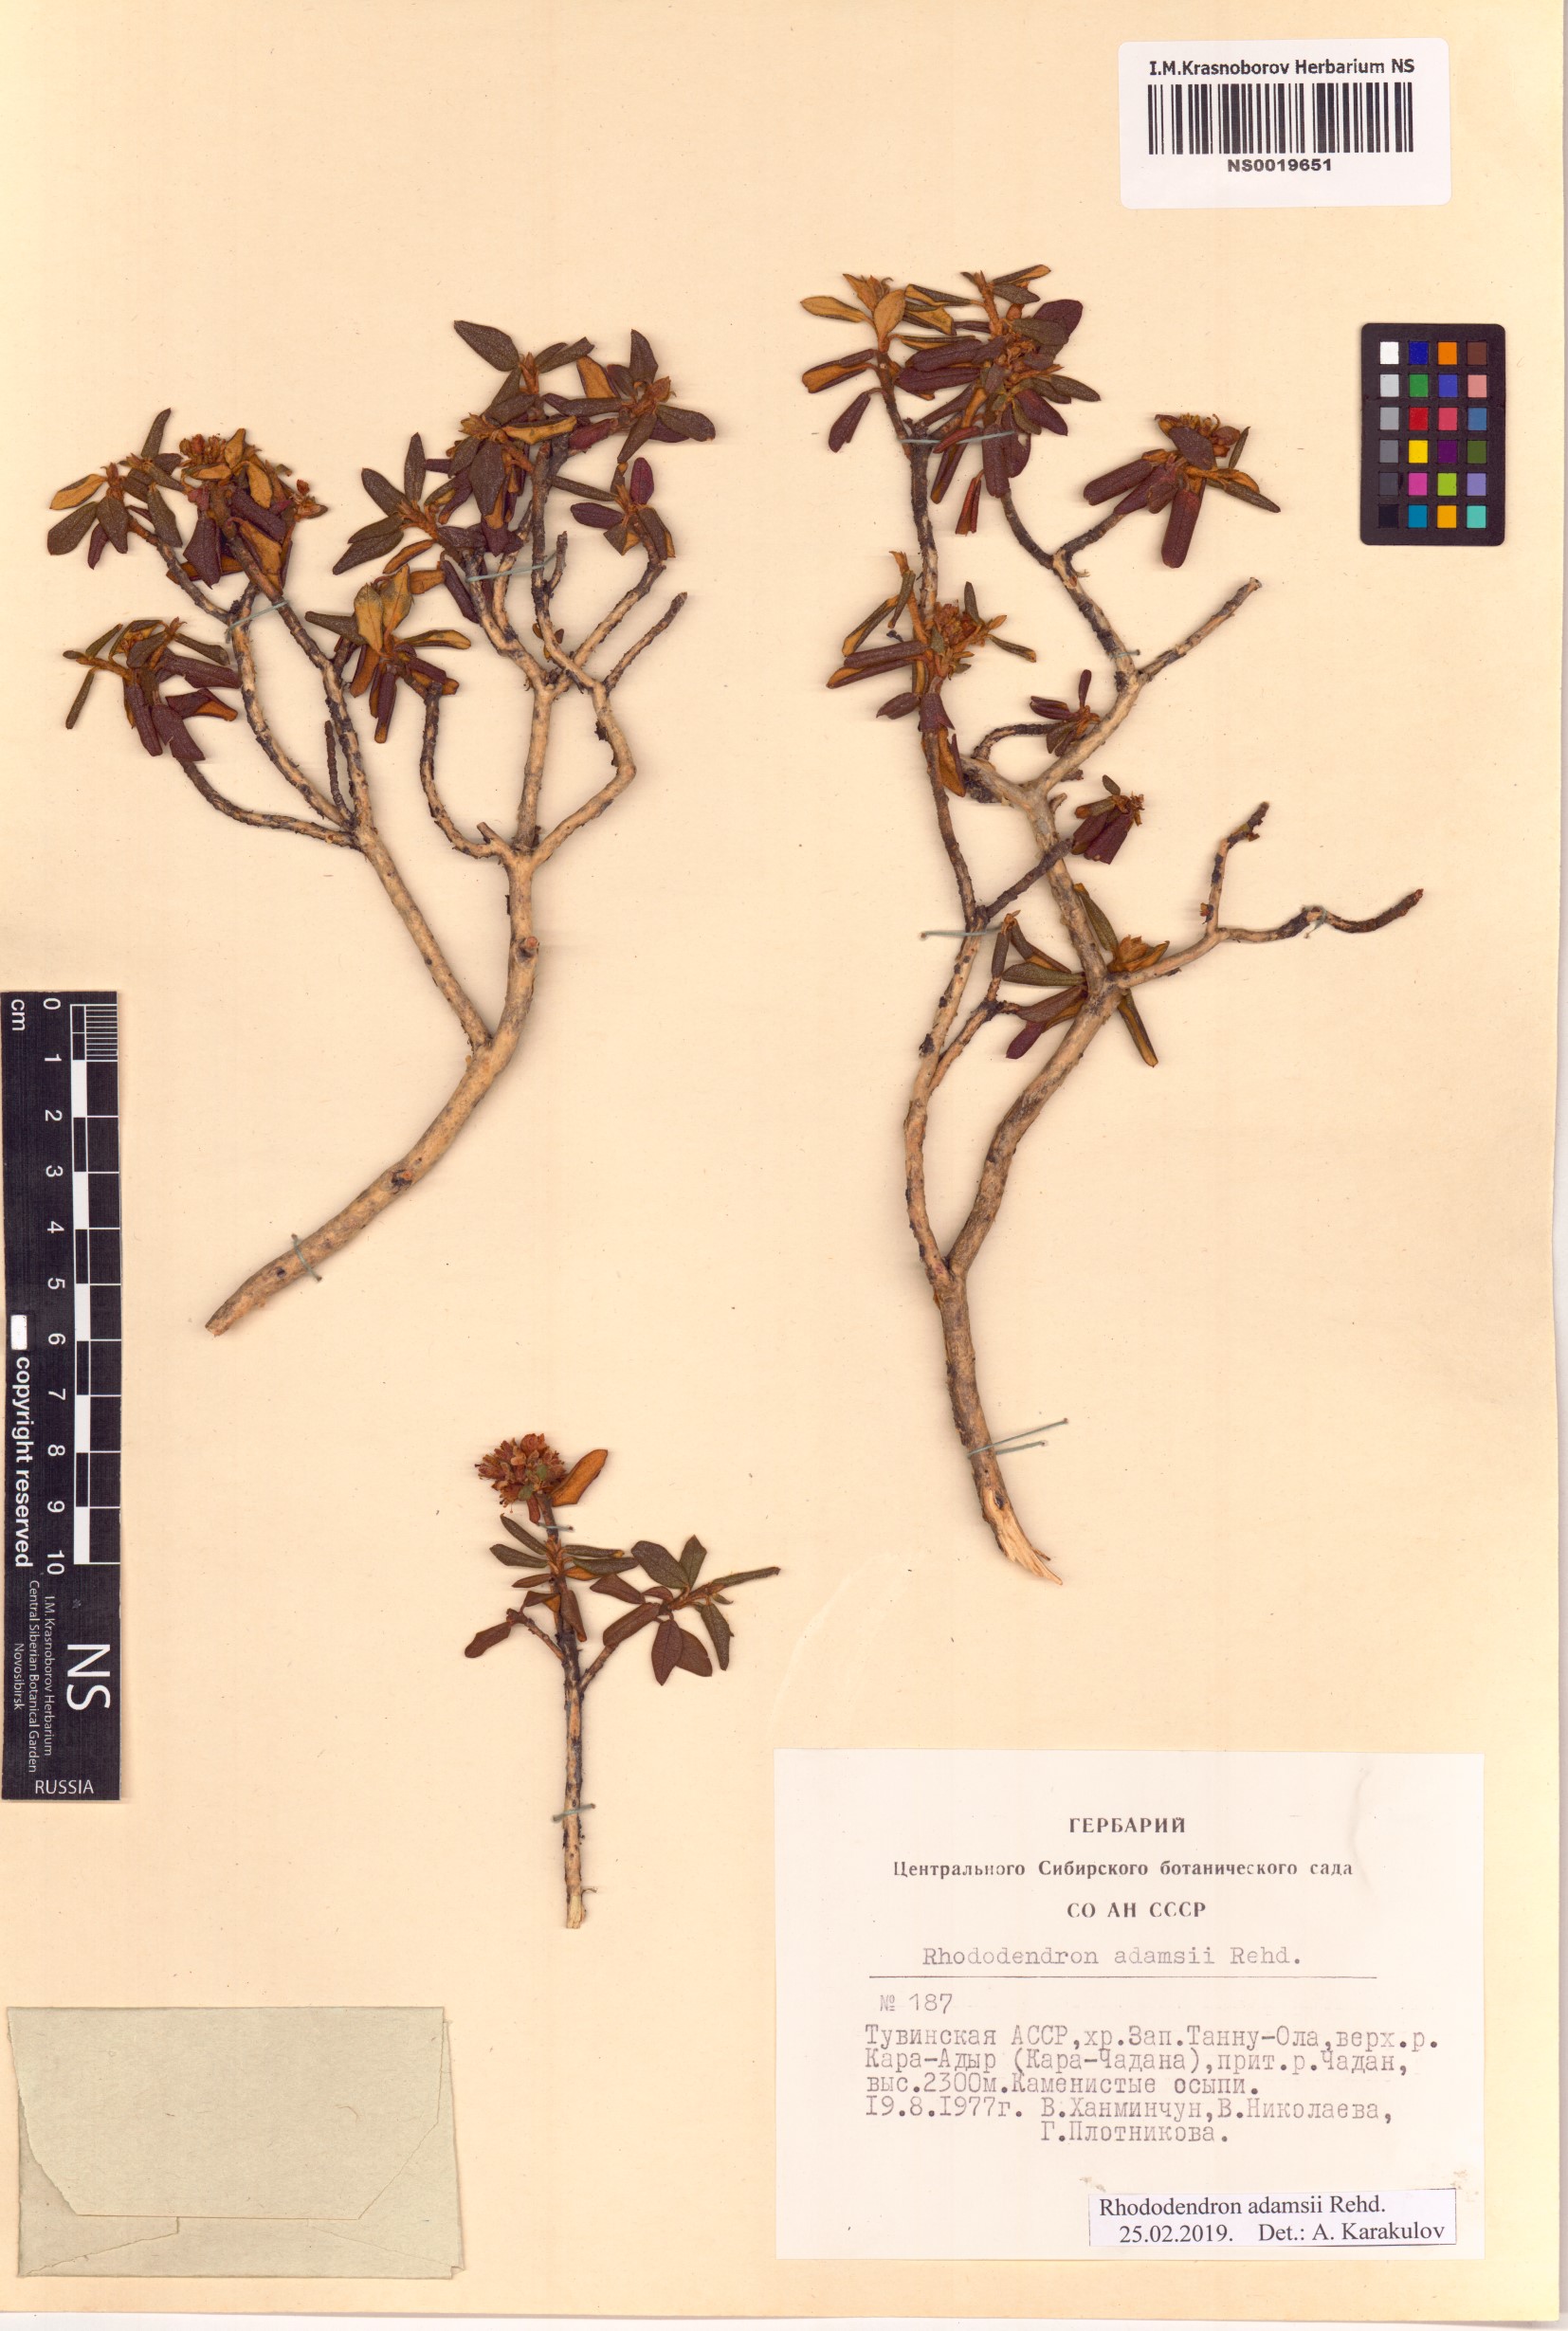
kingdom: Plantae
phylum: Tracheophyta
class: Magnoliopsida
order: Ericales
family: Ericaceae
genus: Rhododendron
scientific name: Rhododendron adamsii
